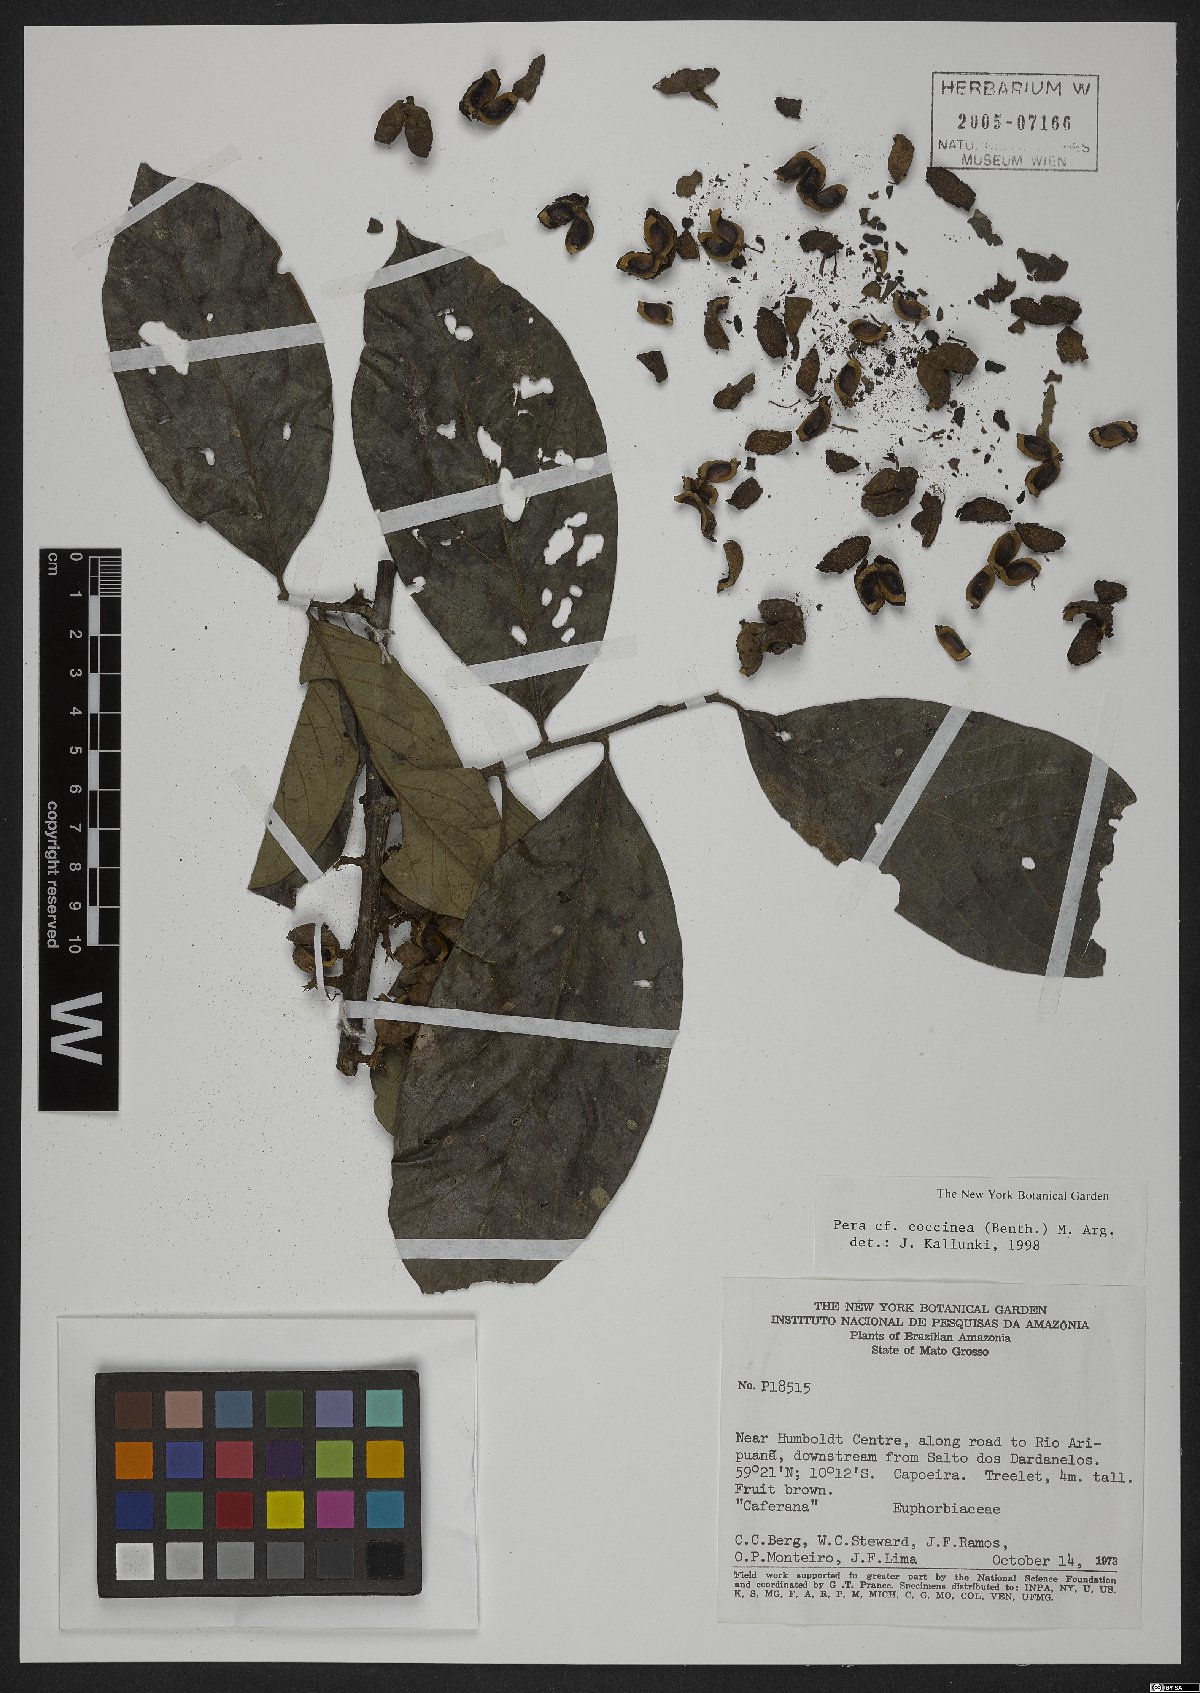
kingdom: Plantae
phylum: Tracheophyta
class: Magnoliopsida
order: Malpighiales
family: Peraceae
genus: Pera
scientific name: Pera coccinea
